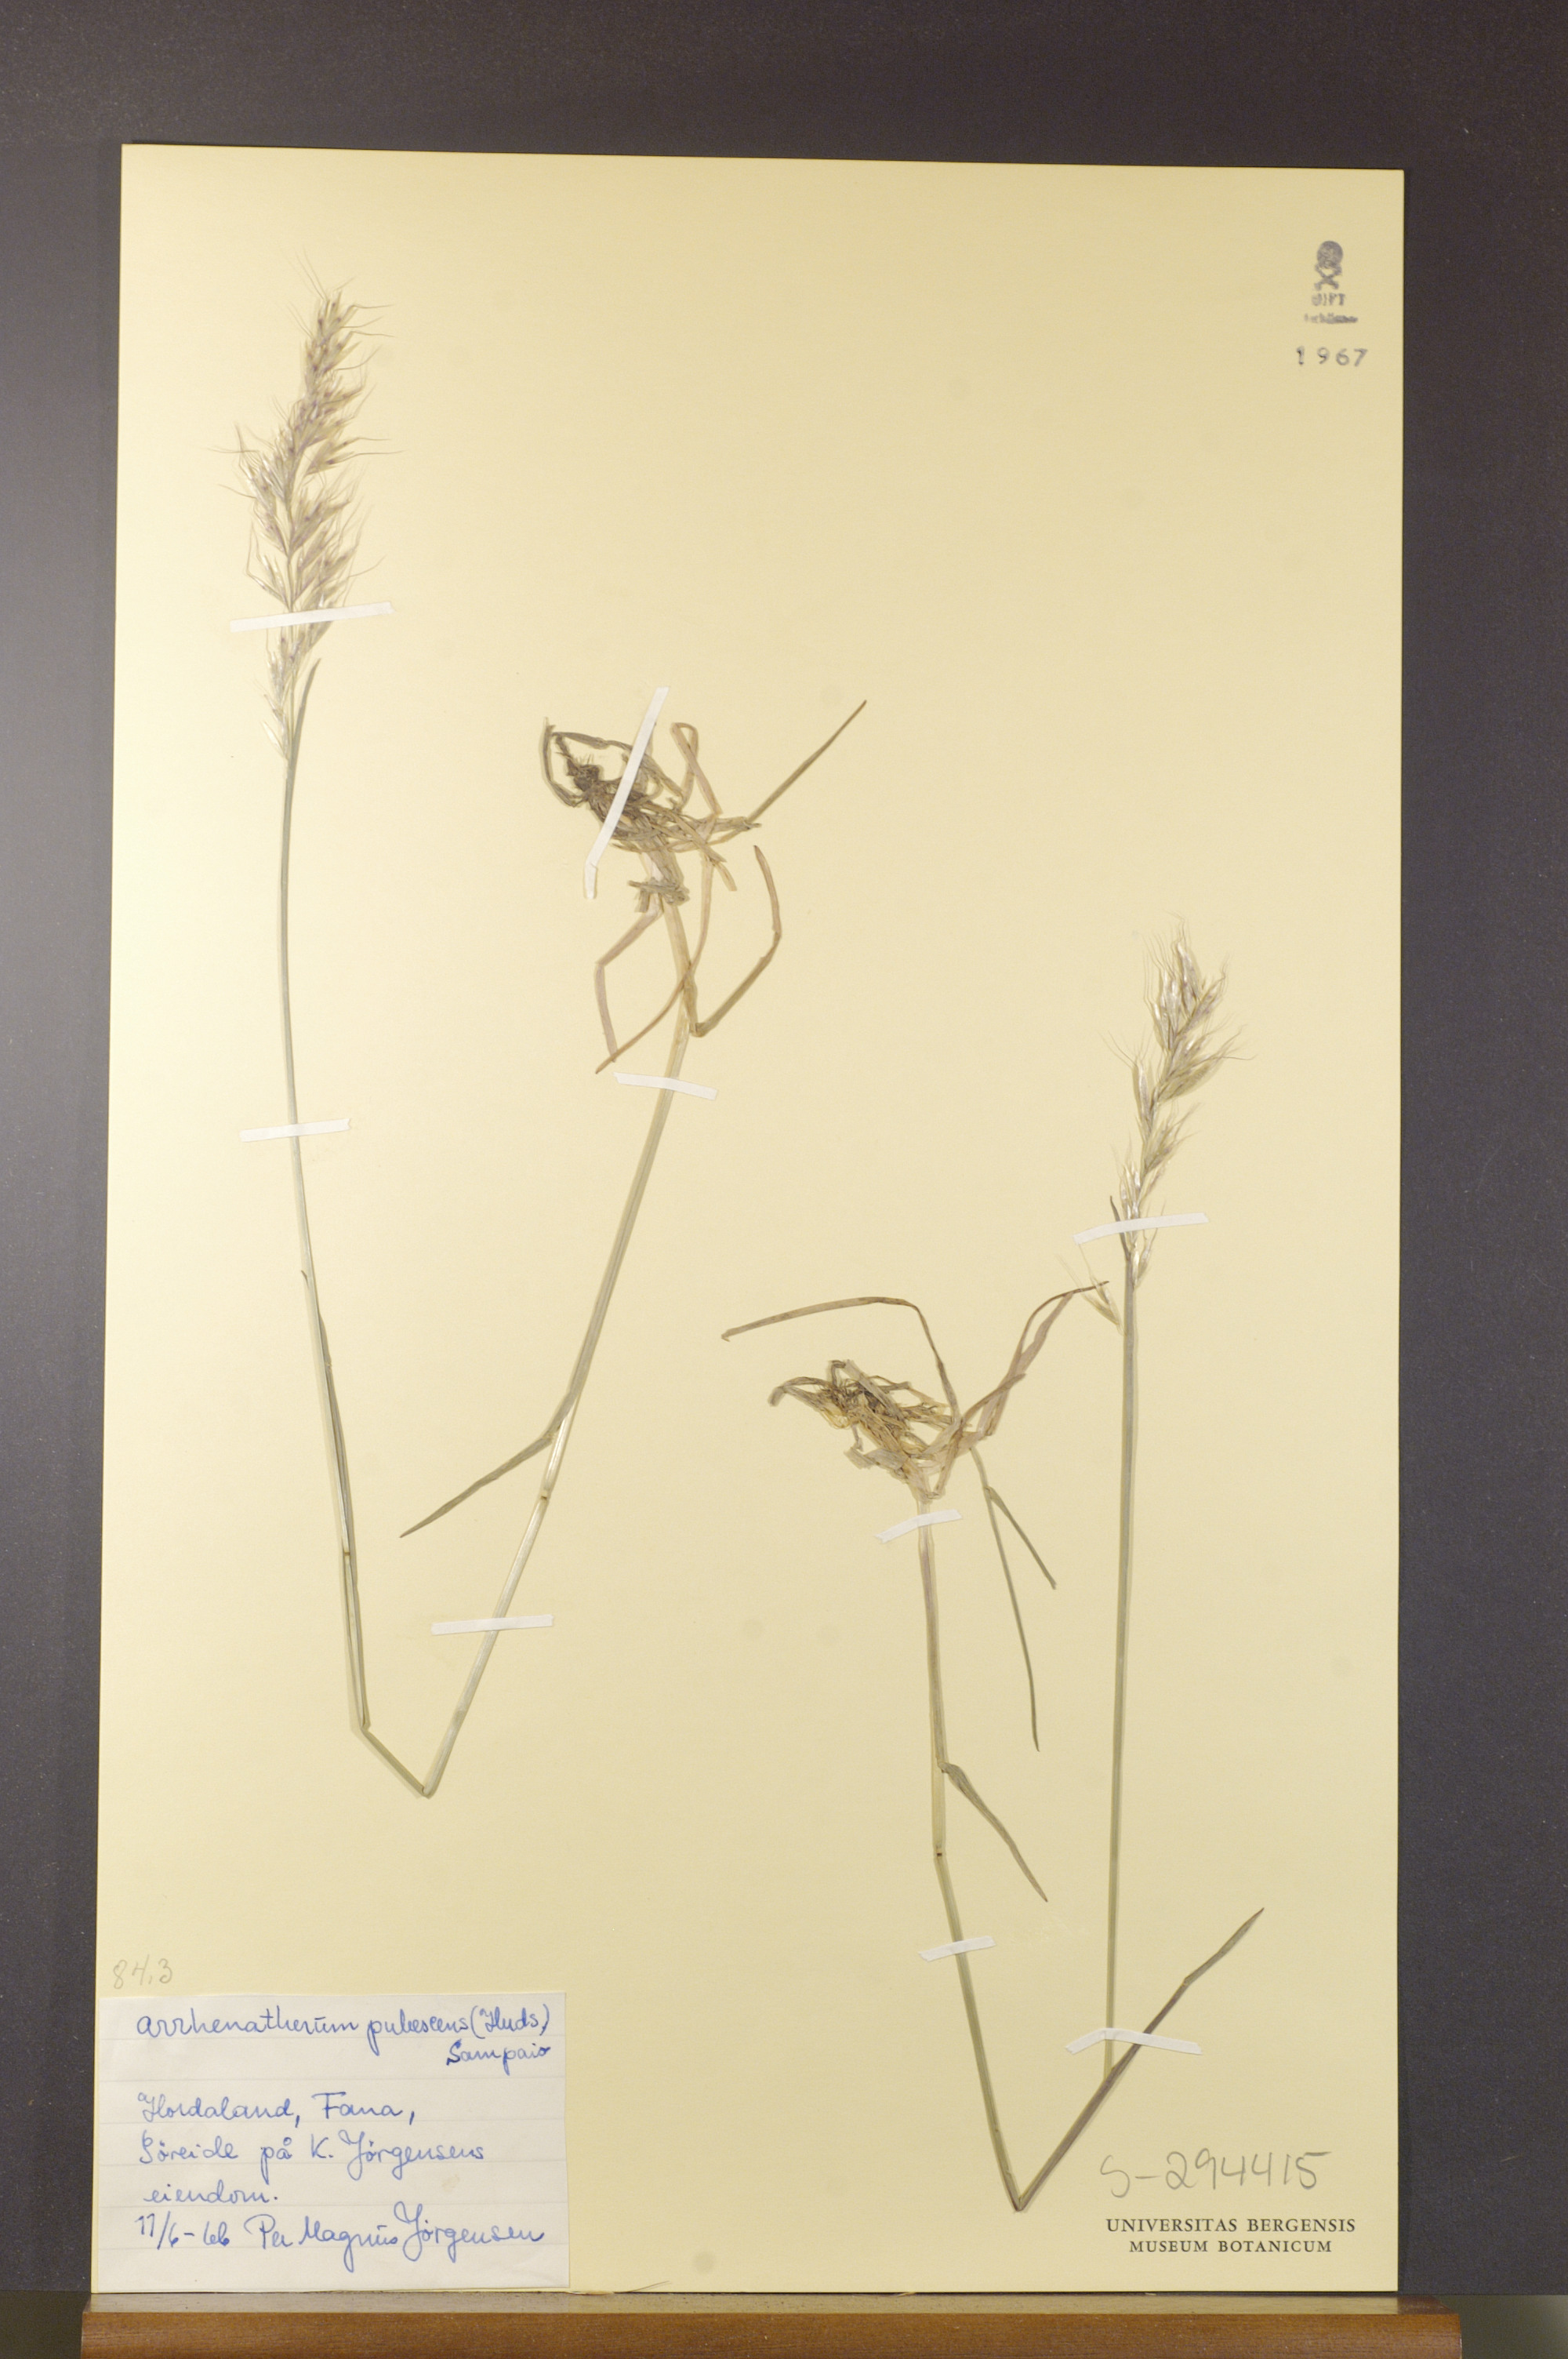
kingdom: Plantae
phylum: Tracheophyta
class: Liliopsida
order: Poales
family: Poaceae
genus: Avenula
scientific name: Avenula pubescens
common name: Downy alpine oatgrass
